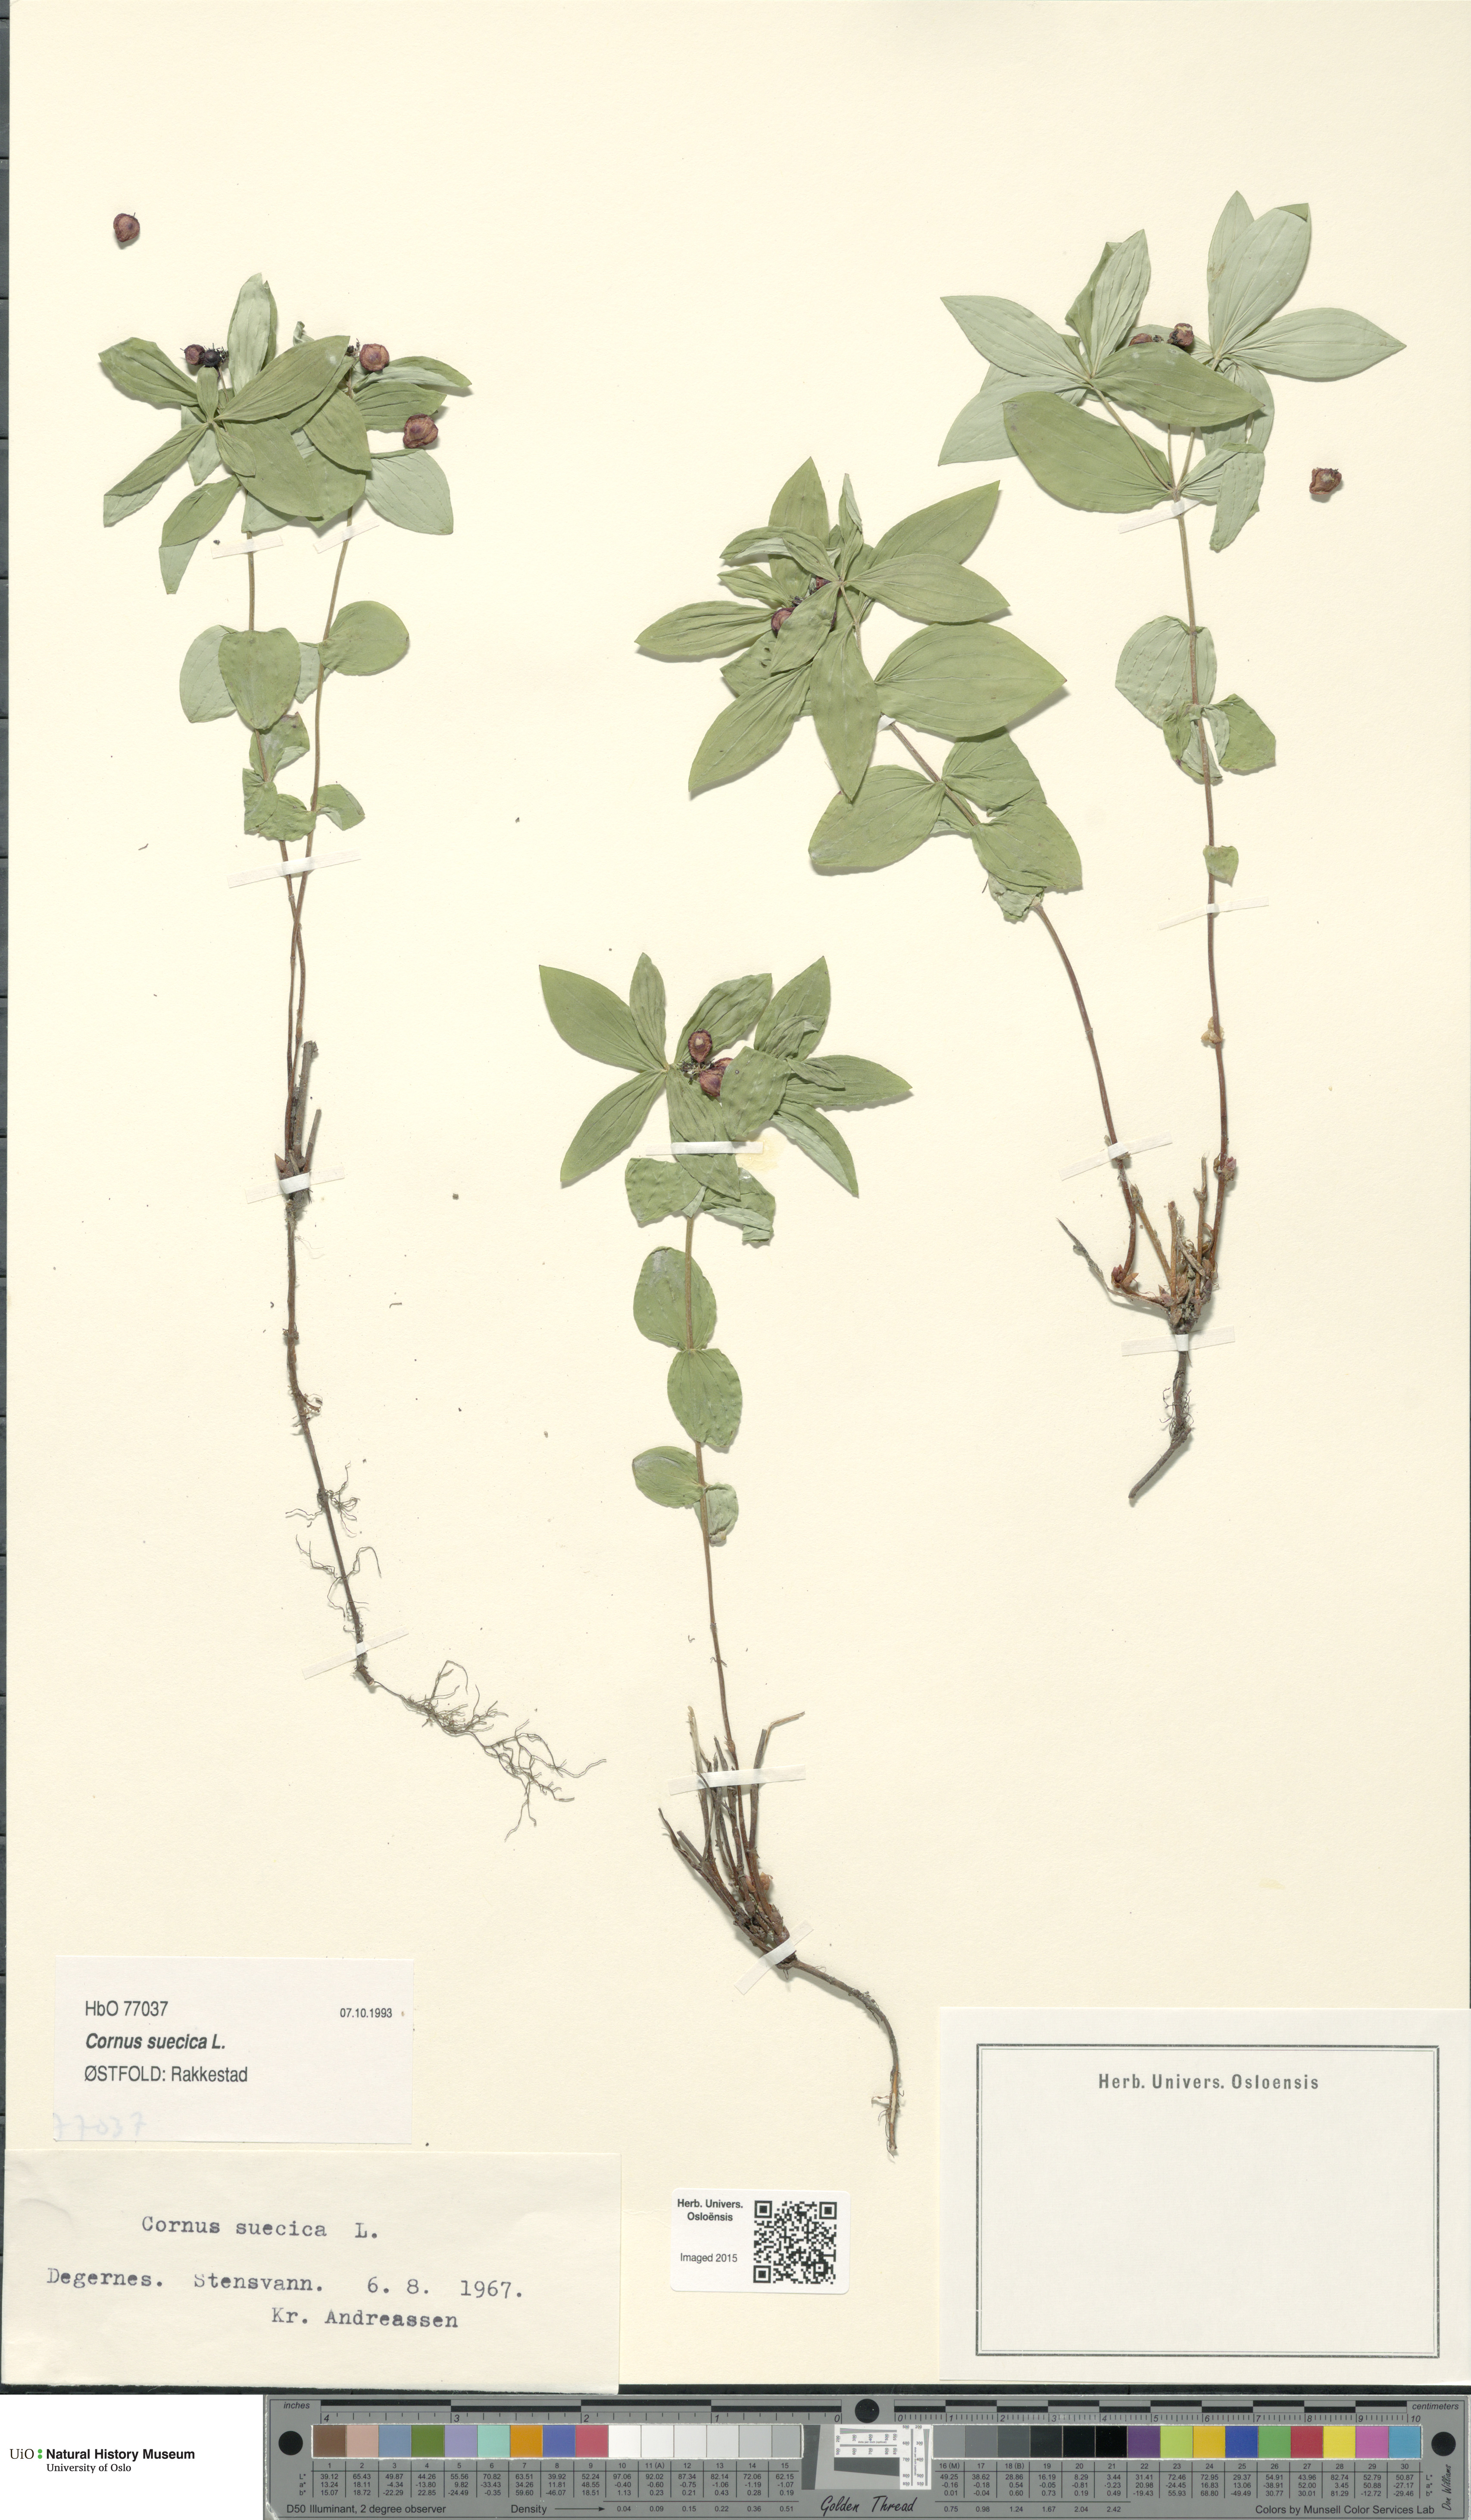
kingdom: Plantae
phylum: Tracheophyta
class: Magnoliopsida
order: Cornales
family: Cornaceae
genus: Cornus
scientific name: Cornus suecica
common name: Dwarf cornel
